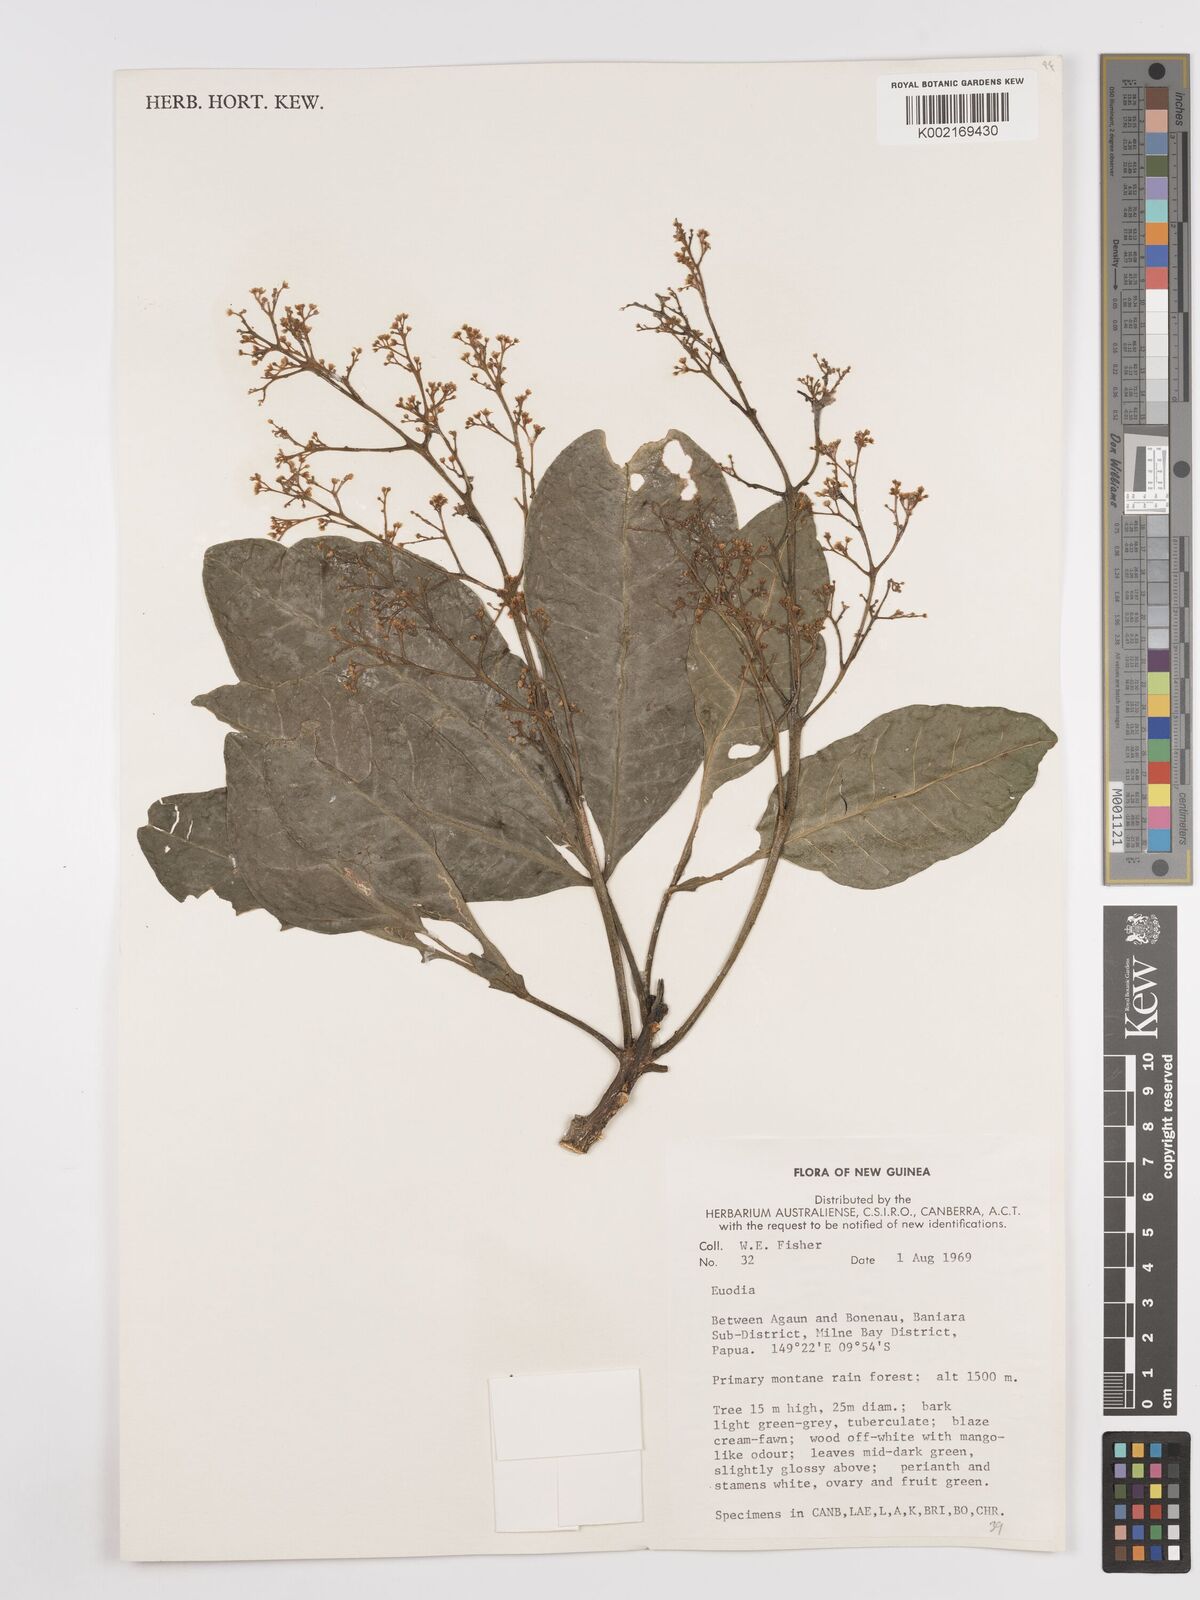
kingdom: Plantae
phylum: Tracheophyta
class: Magnoliopsida
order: Sapindales
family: Rutaceae
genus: Euodia
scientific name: Euodia
